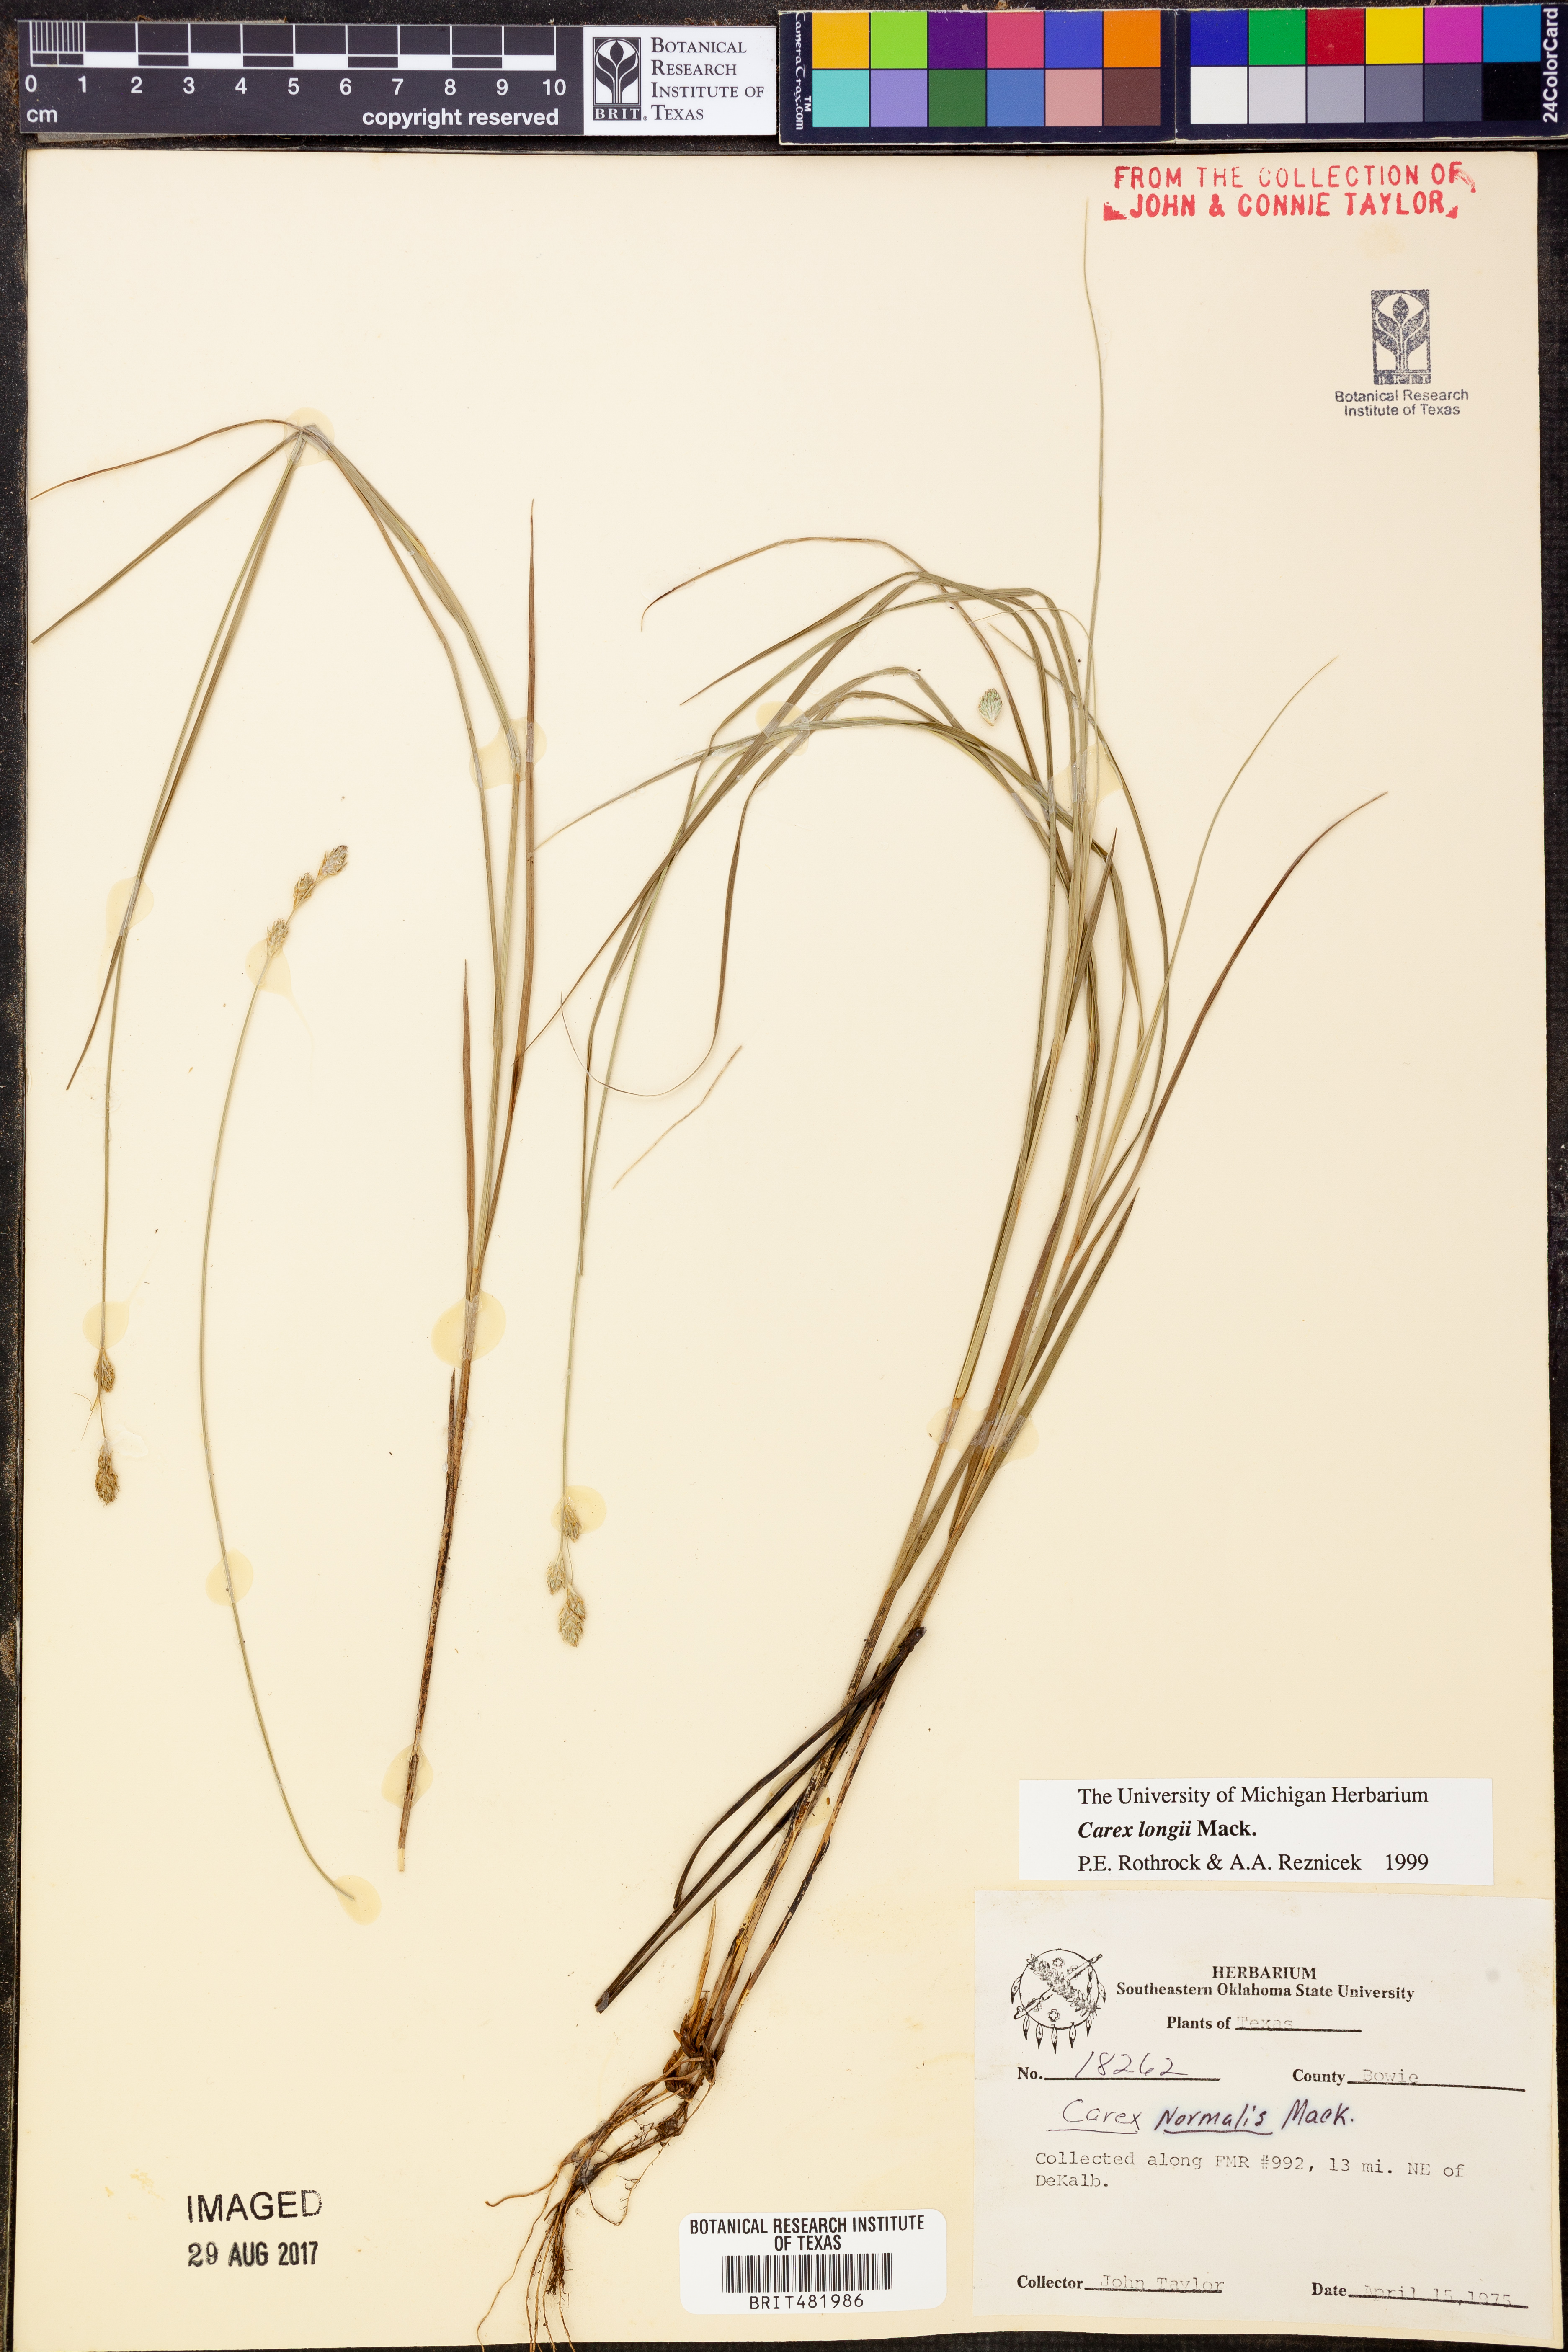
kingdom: Plantae
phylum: Tracheophyta
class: Liliopsida
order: Poales
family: Cyperaceae
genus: Carex
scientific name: Carex longii
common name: Long's sedge
